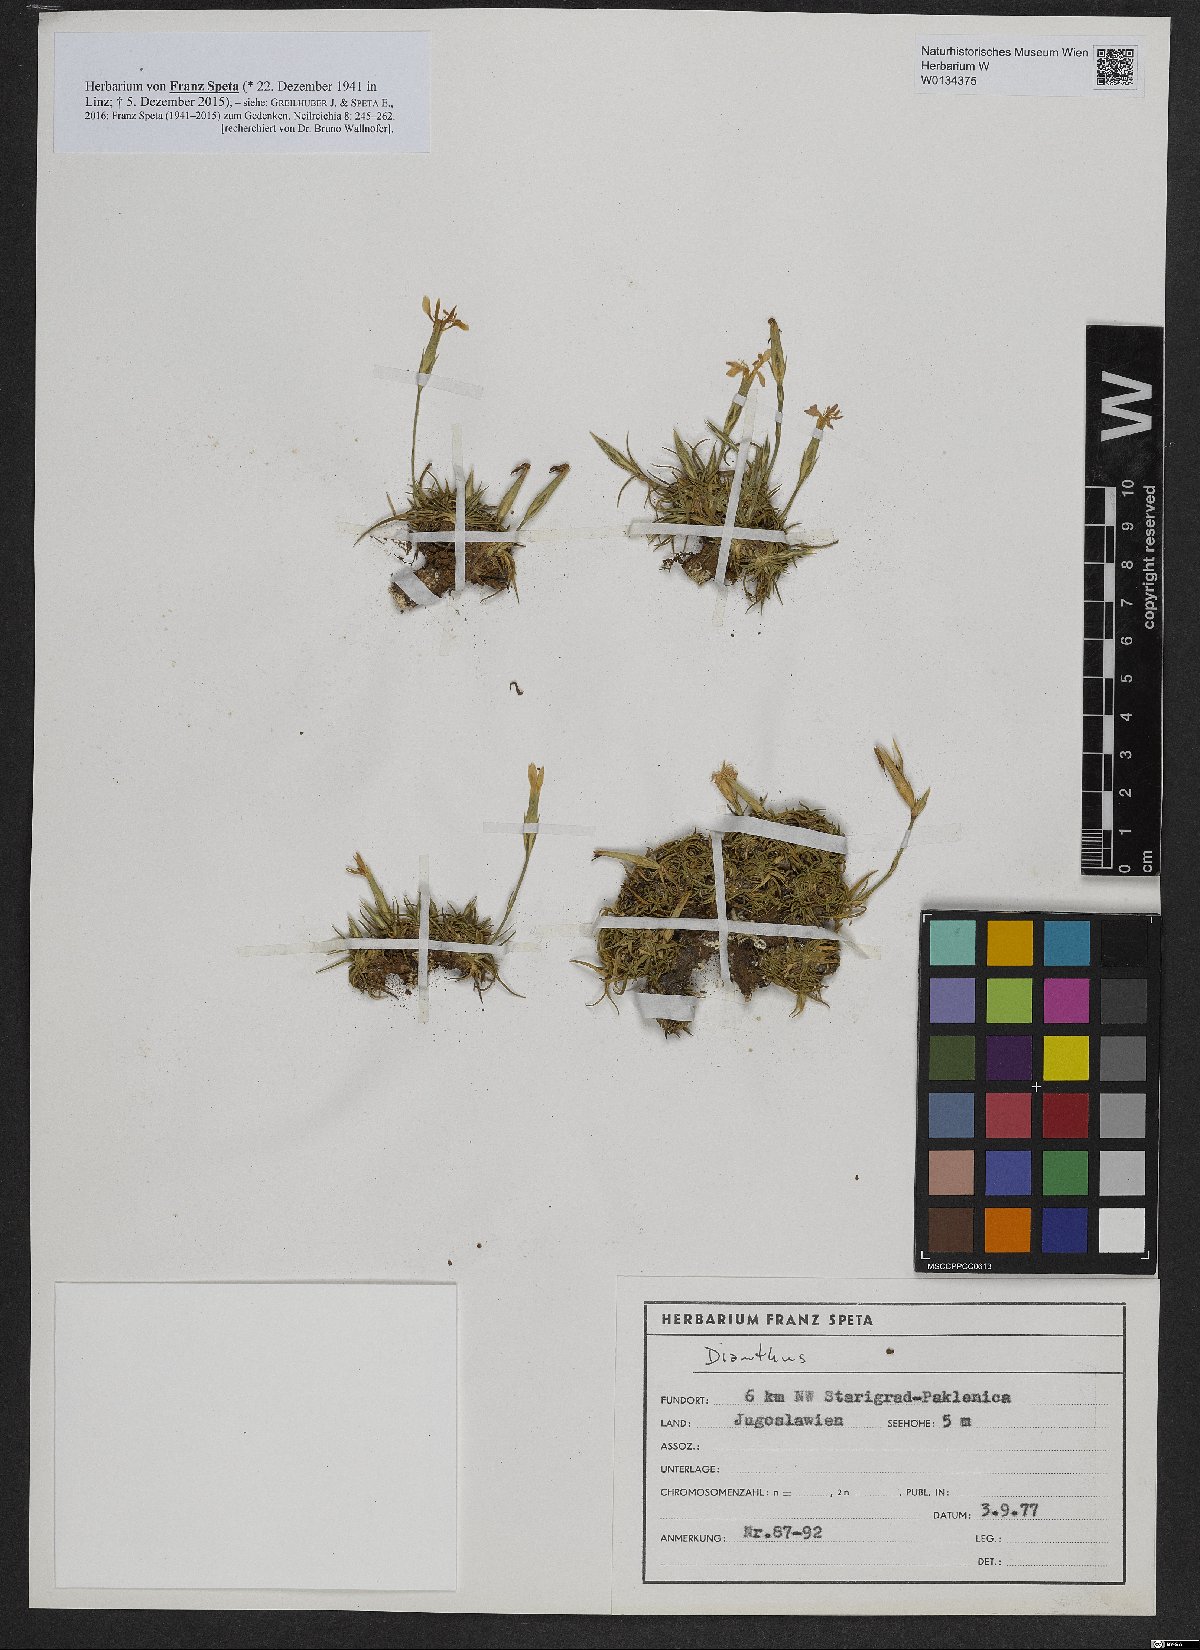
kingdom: Plantae
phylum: Tracheophyta
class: Magnoliopsida
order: Caryophyllales
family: Caryophyllaceae
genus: Dianthus
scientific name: Dianthus
